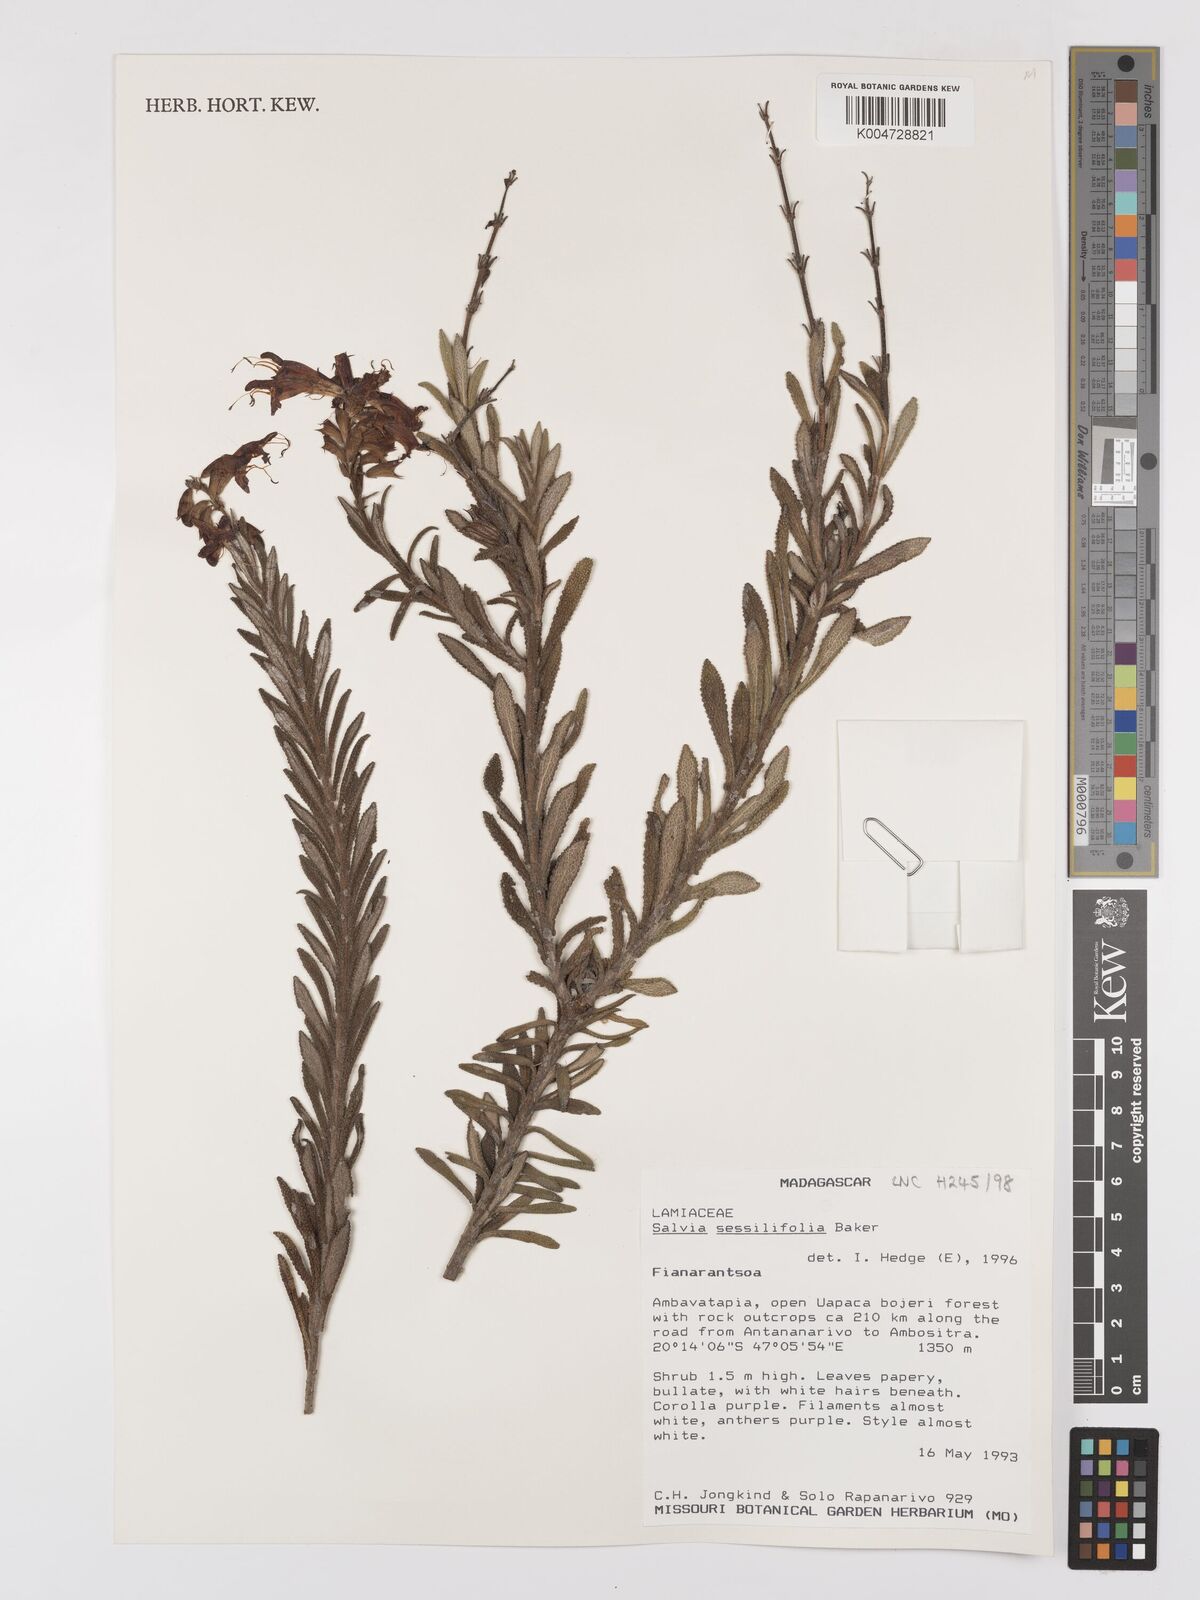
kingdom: Plantae
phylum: Tracheophyta
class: Magnoliopsida
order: Lamiales
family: Lamiaceae
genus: Salvia
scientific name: Salvia sessilifolia
